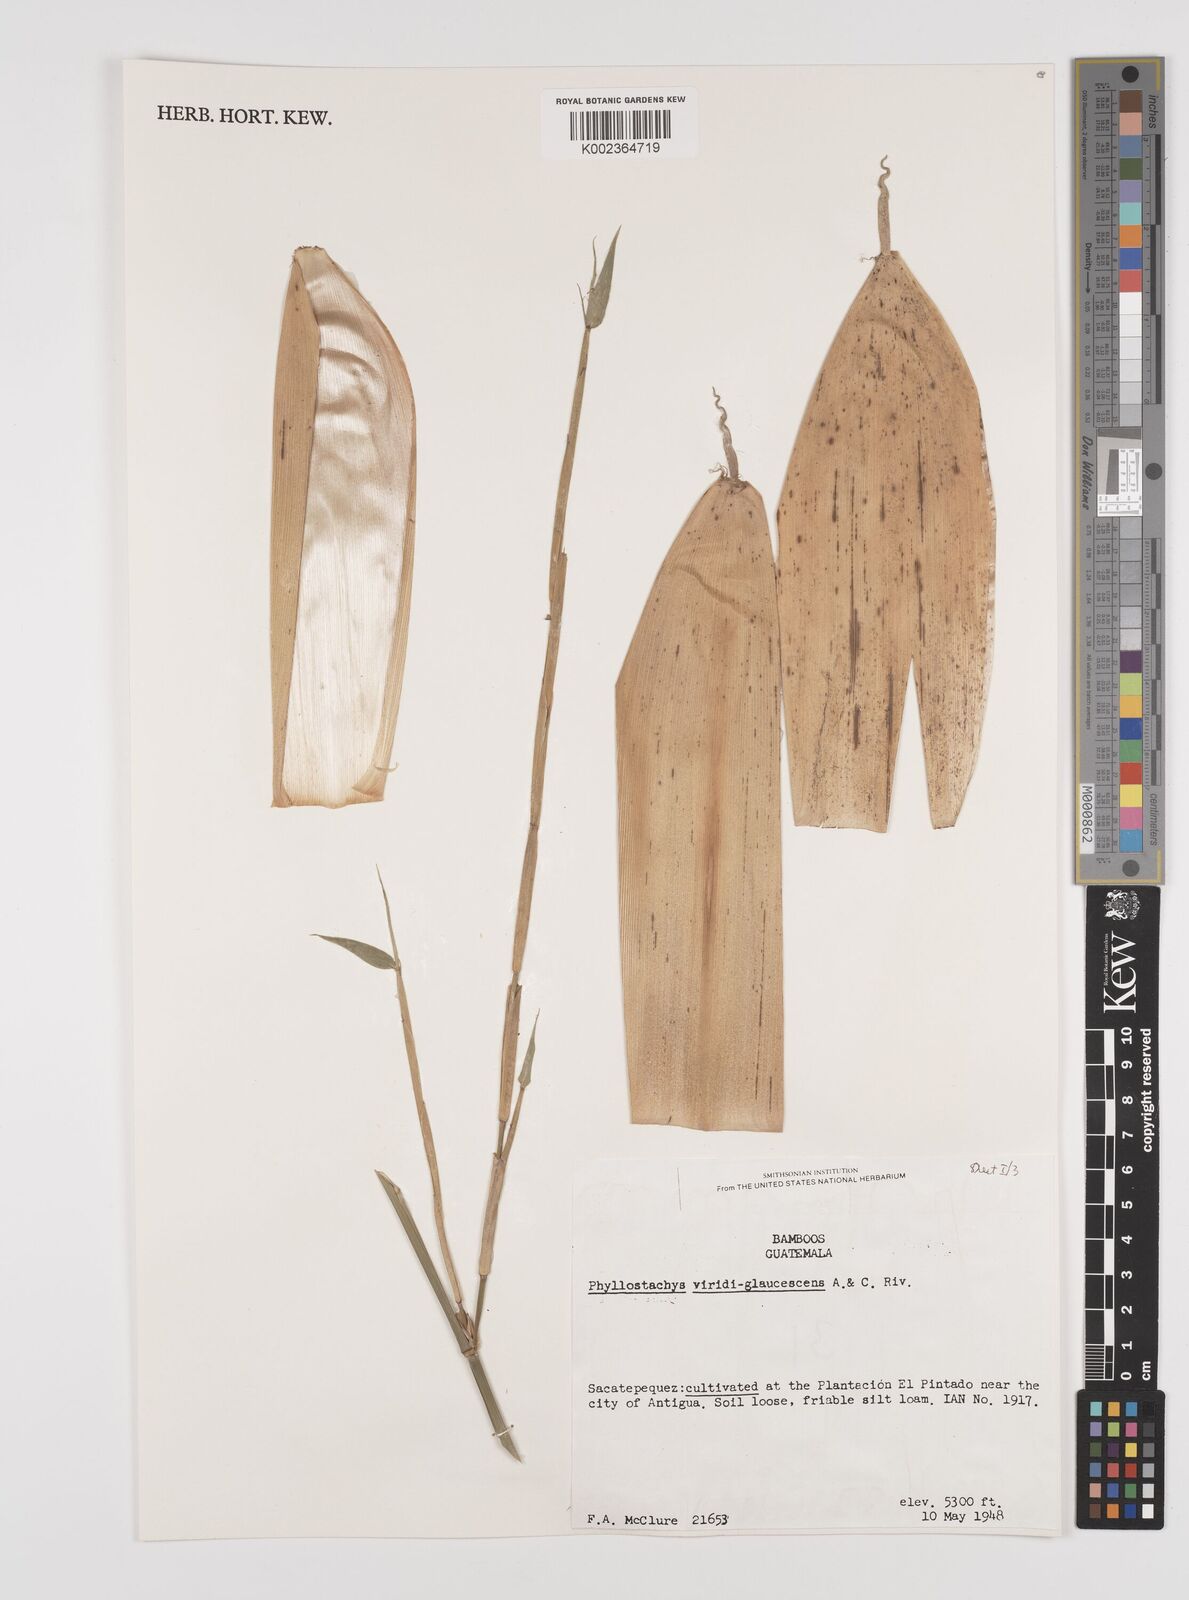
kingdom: Plantae
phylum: Tracheophyta
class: Liliopsida
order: Poales
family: Poaceae
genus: Phyllostachys
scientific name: Phyllostachys viridiglaucescens
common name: Greenwax golden bamboo
